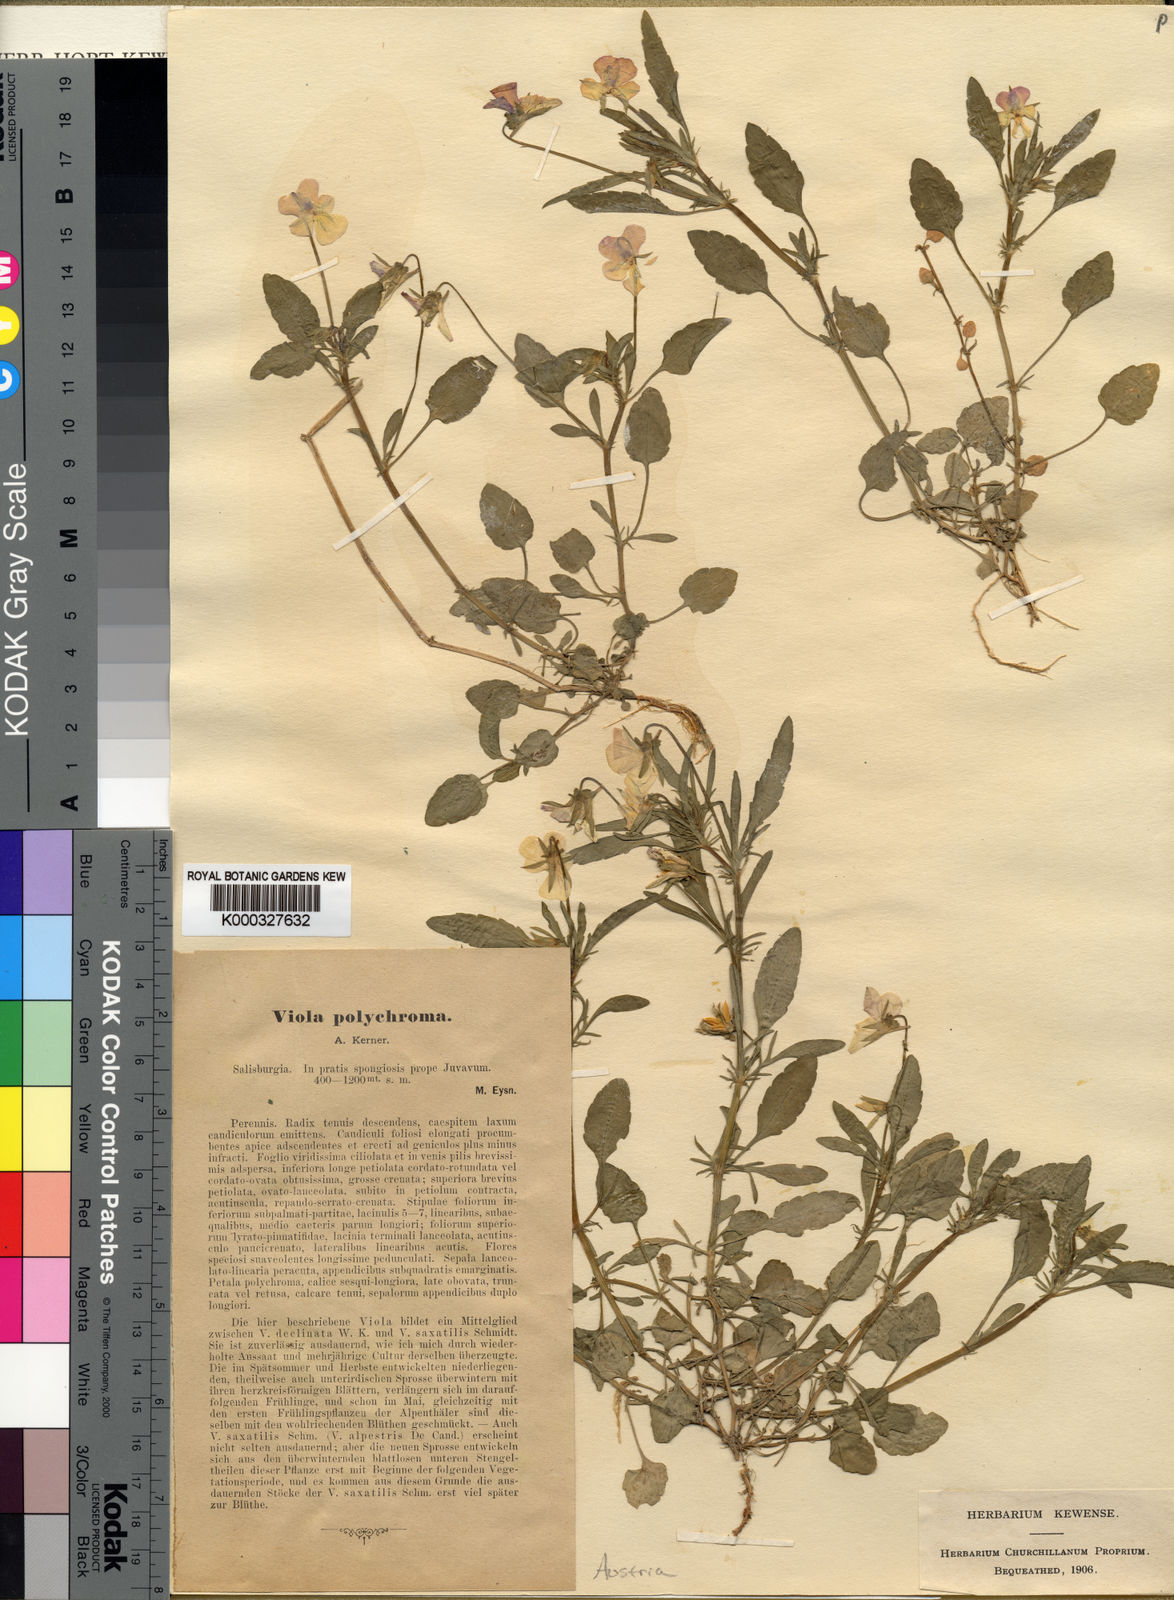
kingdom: Plantae
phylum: Tracheophyta
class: Magnoliopsida
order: Malpighiales
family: Violaceae
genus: Viola
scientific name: Viola tricolor
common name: Pansy
